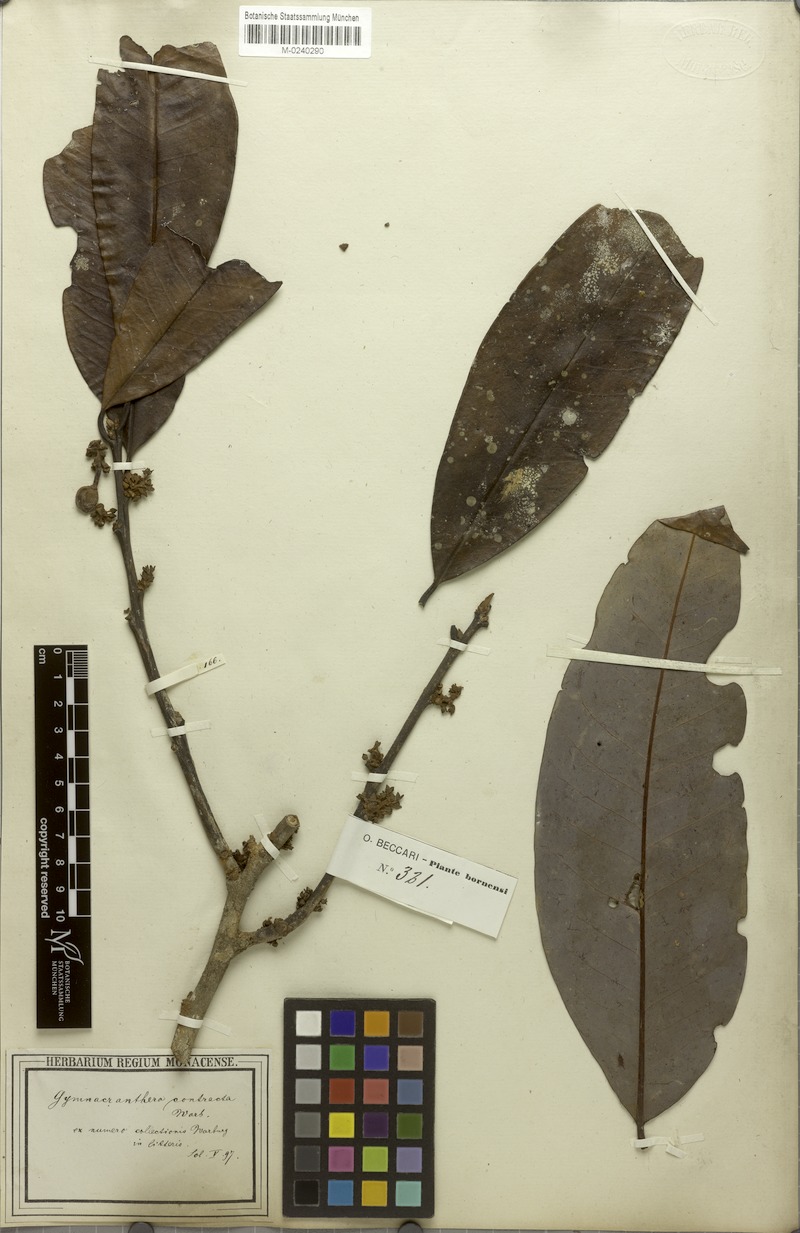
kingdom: Plantae
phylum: Tracheophyta
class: Magnoliopsida
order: Magnoliales
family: Myristicaceae
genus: Gymnacranthera
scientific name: Gymnacranthera contracta
